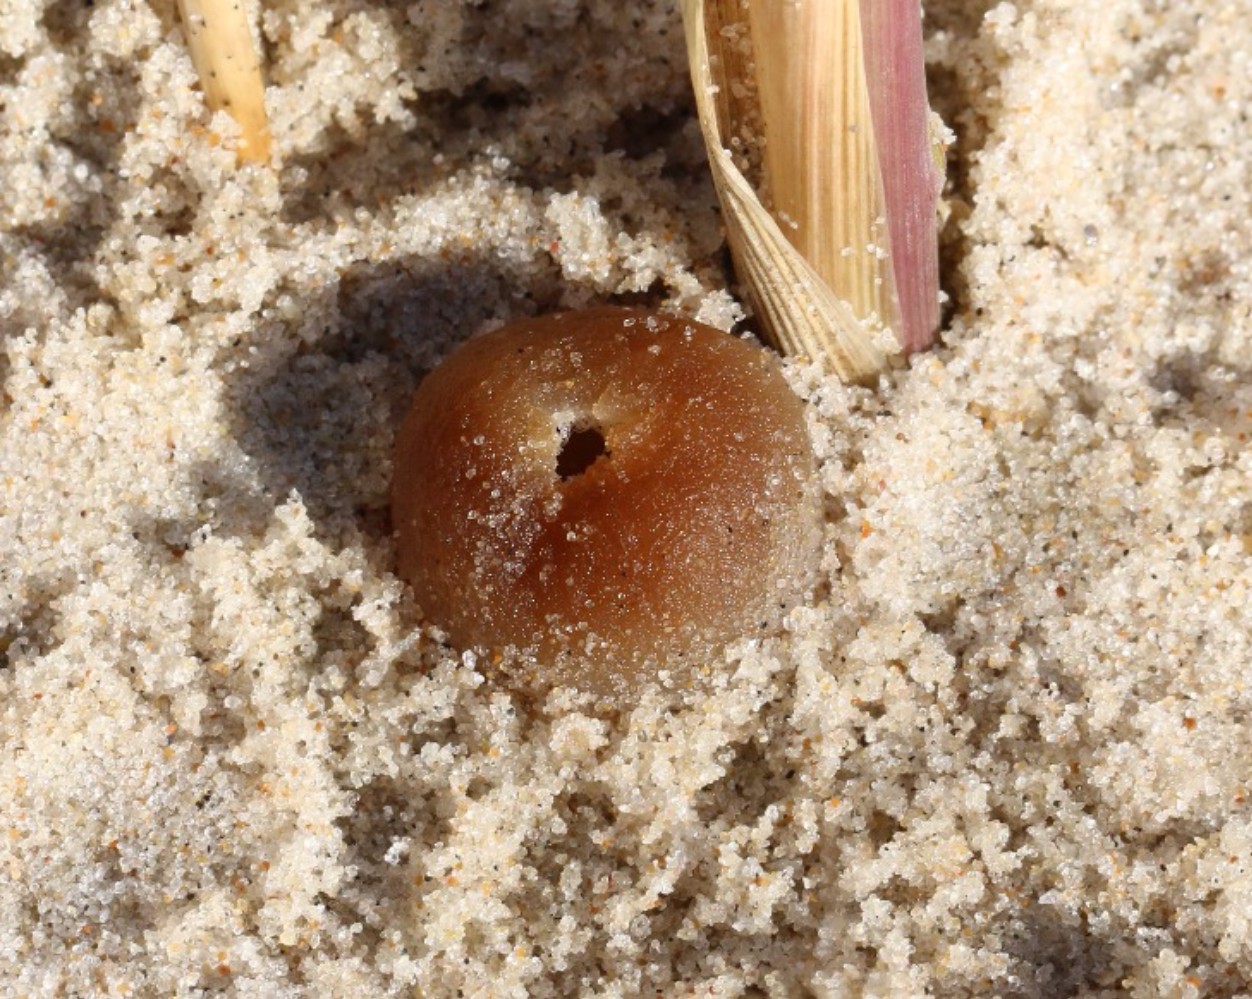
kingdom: Fungi
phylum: Ascomycota
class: Pezizomycetes
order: Pezizales
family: Pyronemataceae
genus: Lamprospora
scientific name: Lamprospora ammophila
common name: klit-bægersvamp
